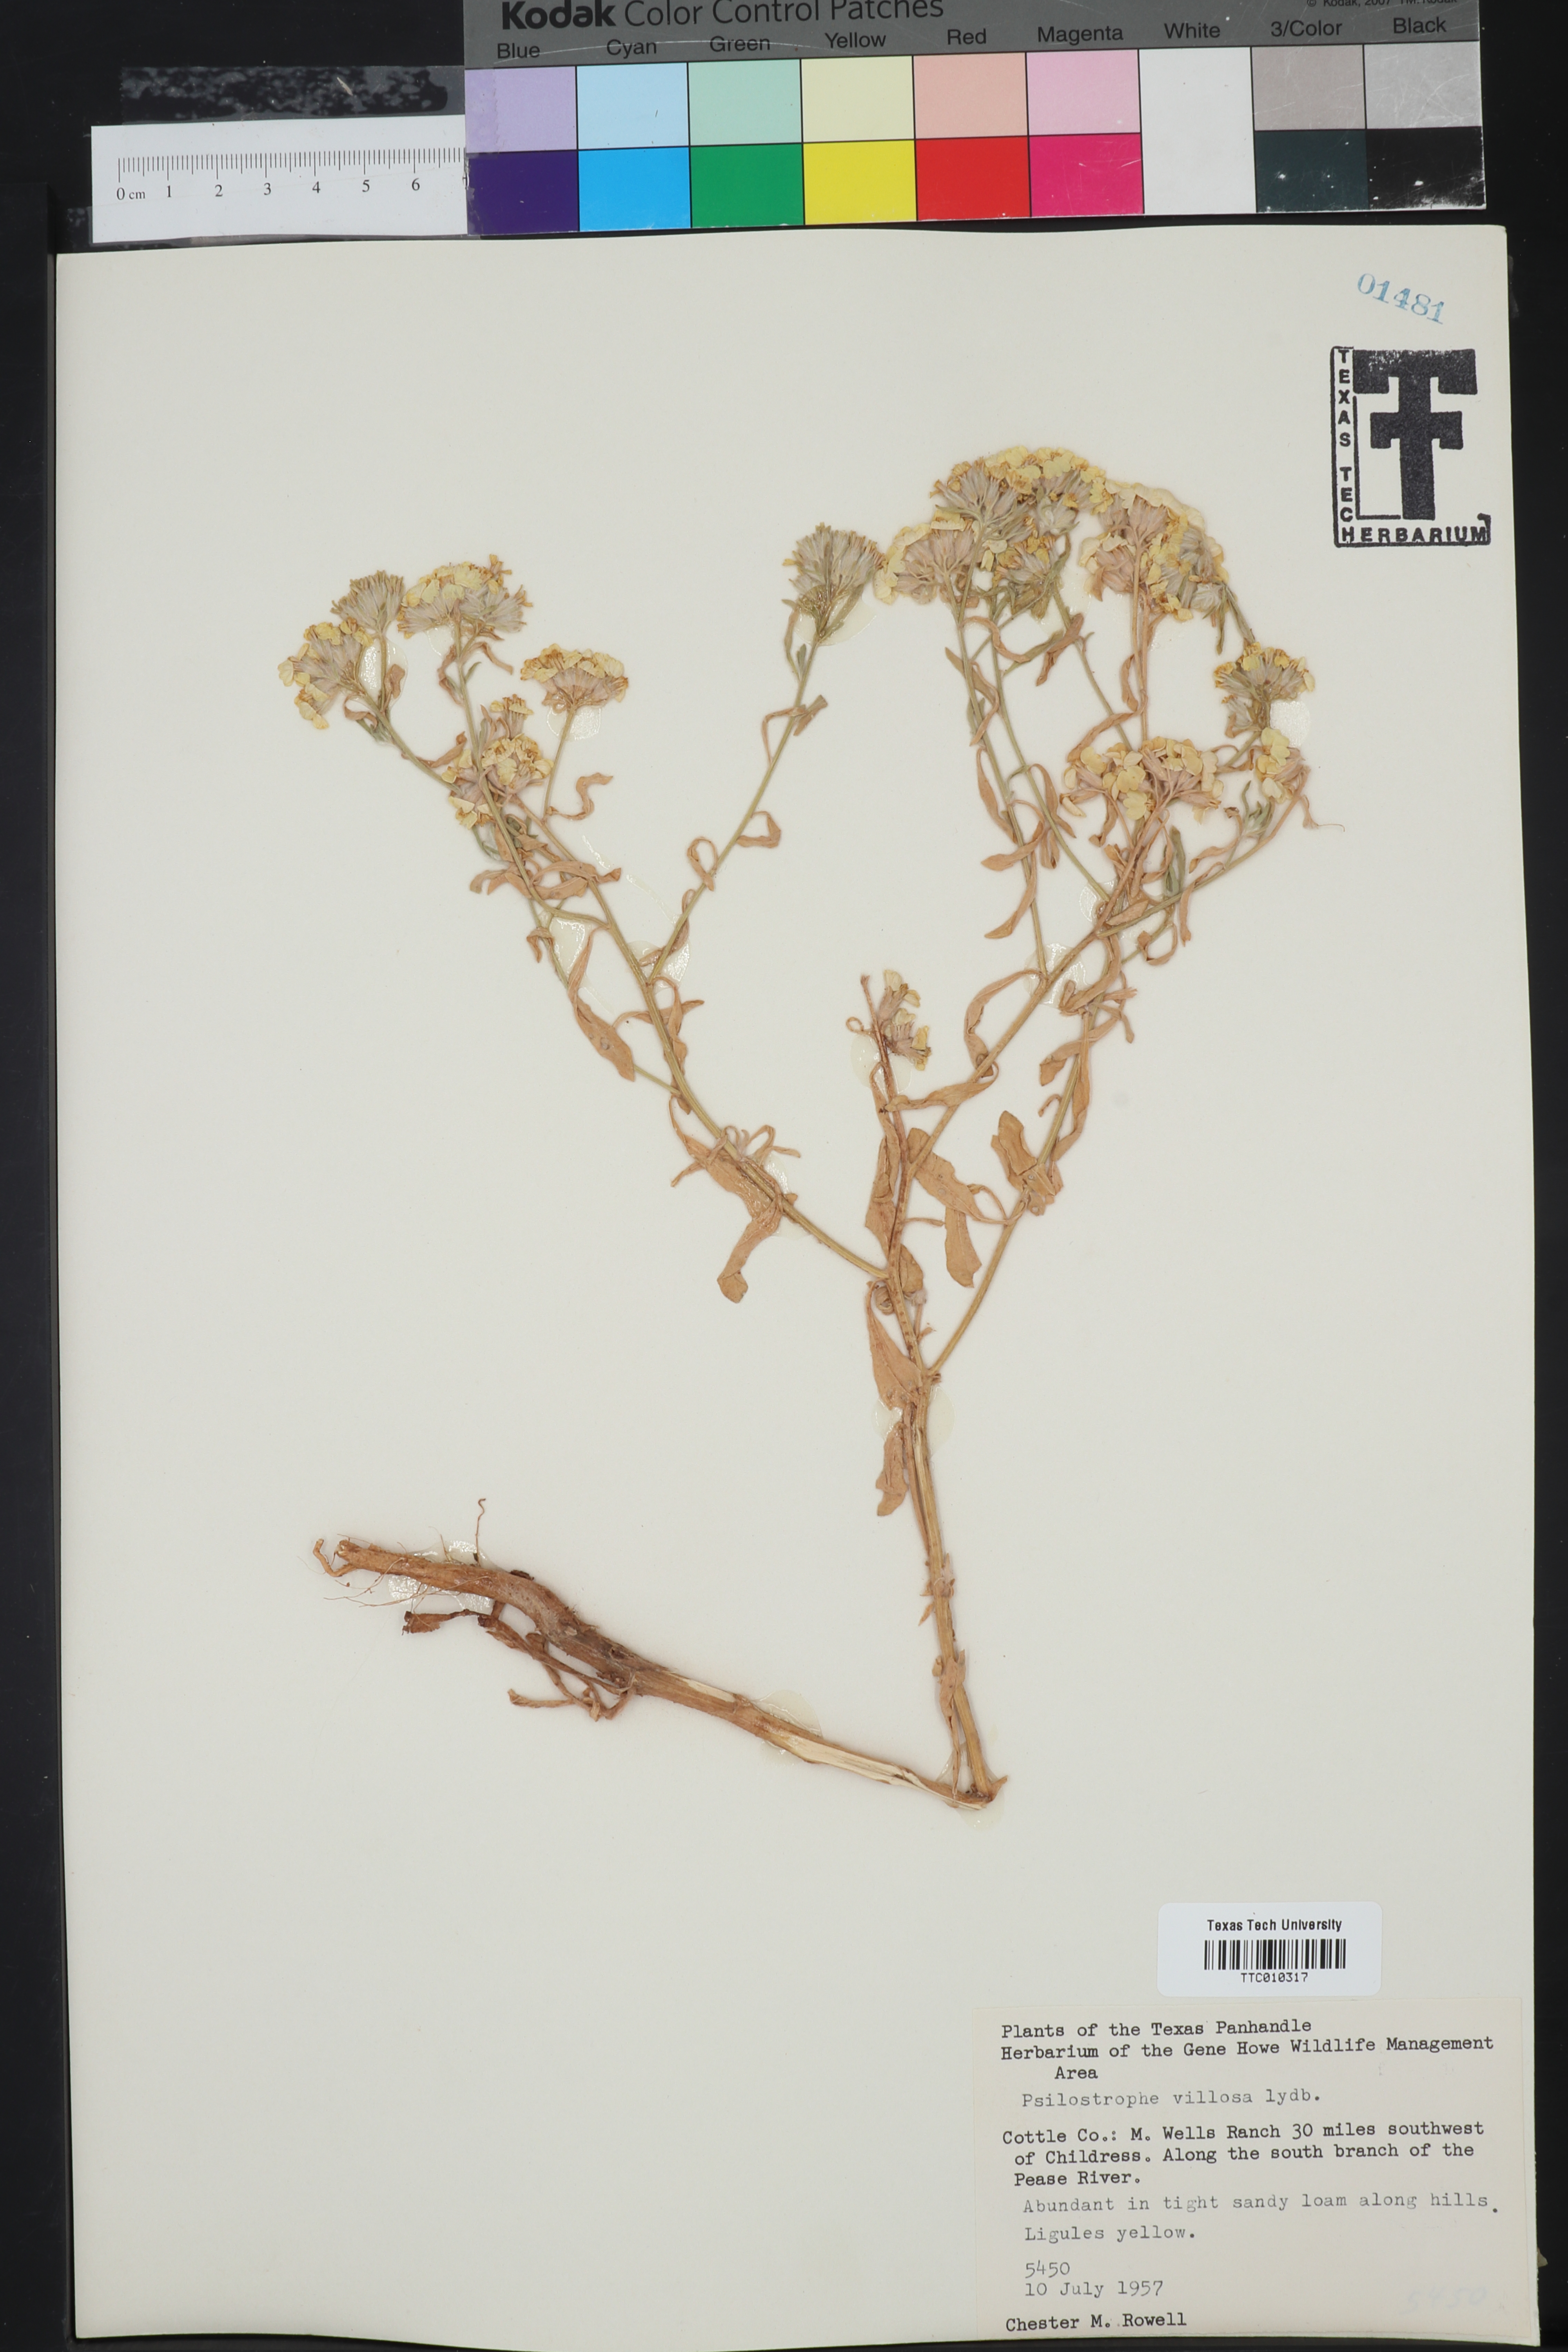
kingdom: Plantae
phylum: Tracheophyta
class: Magnoliopsida
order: Asterales
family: Asteraceae
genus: Psilostrophe
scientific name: Psilostrophe villosa
